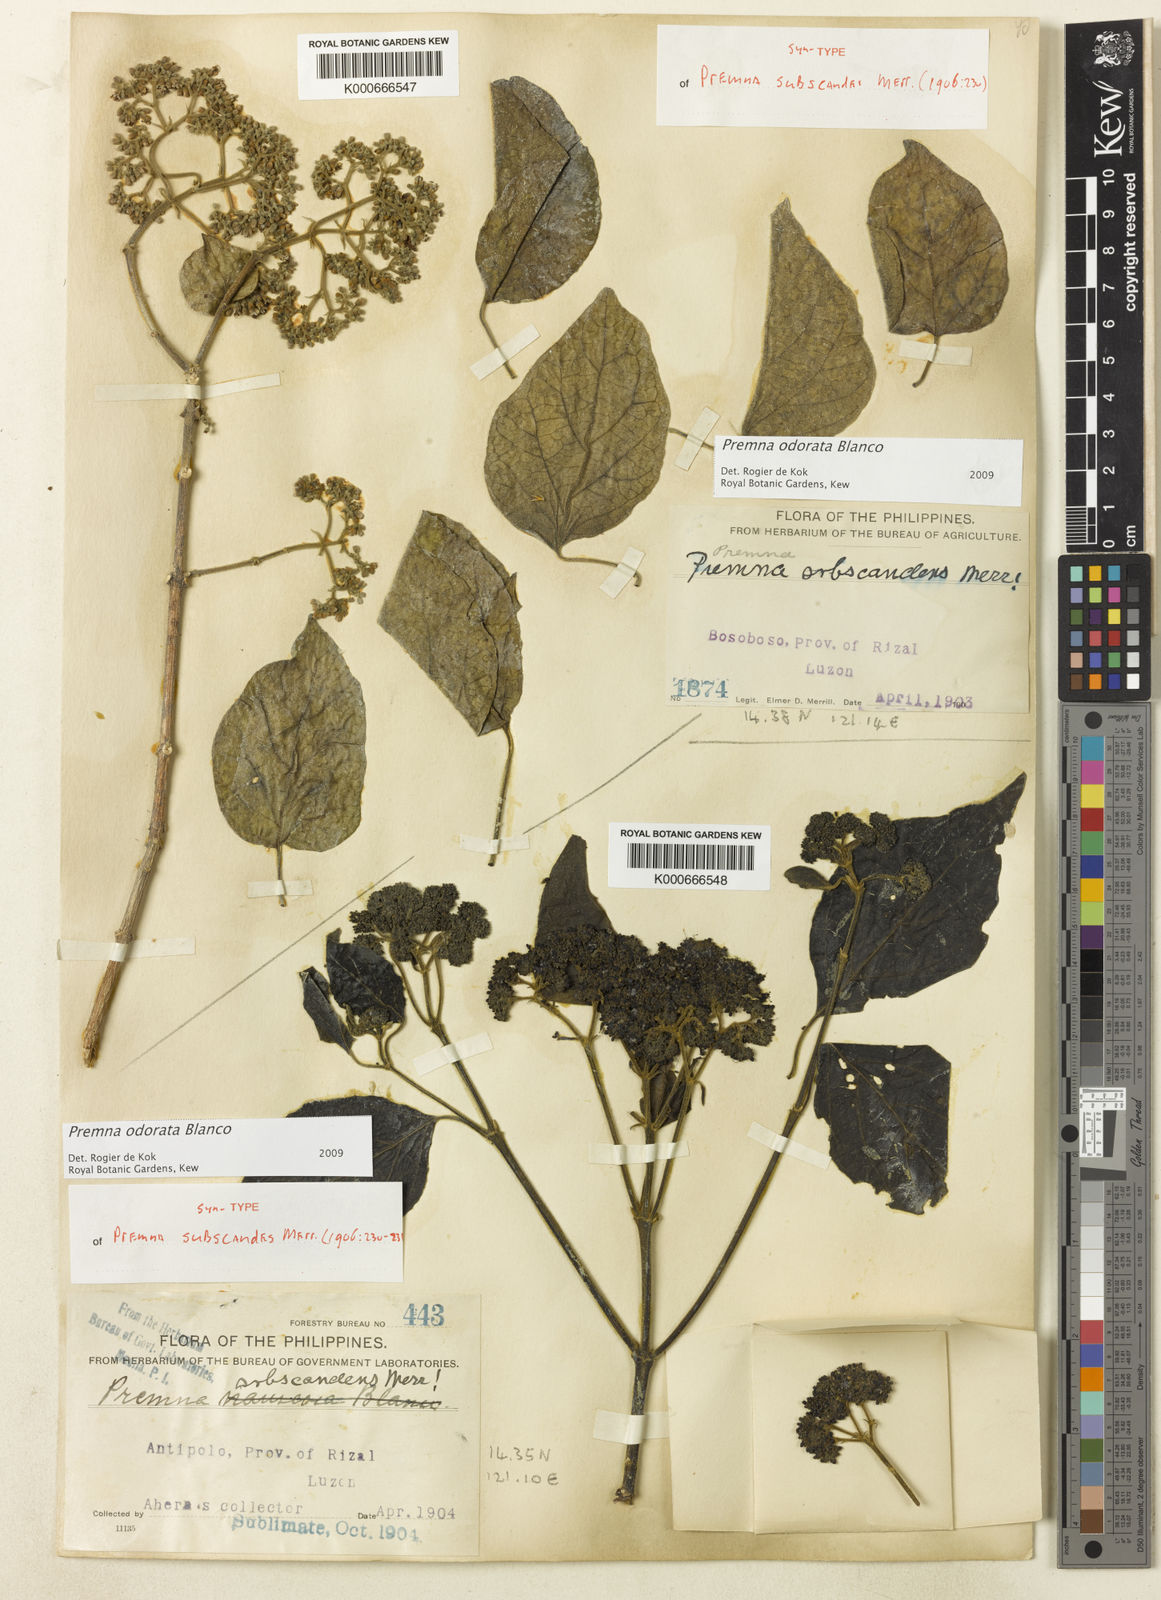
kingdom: Plantae
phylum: Tracheophyta
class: Magnoliopsida
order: Lamiales
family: Lamiaceae
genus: Premna
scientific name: Premna odorata
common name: Fragrant premna
